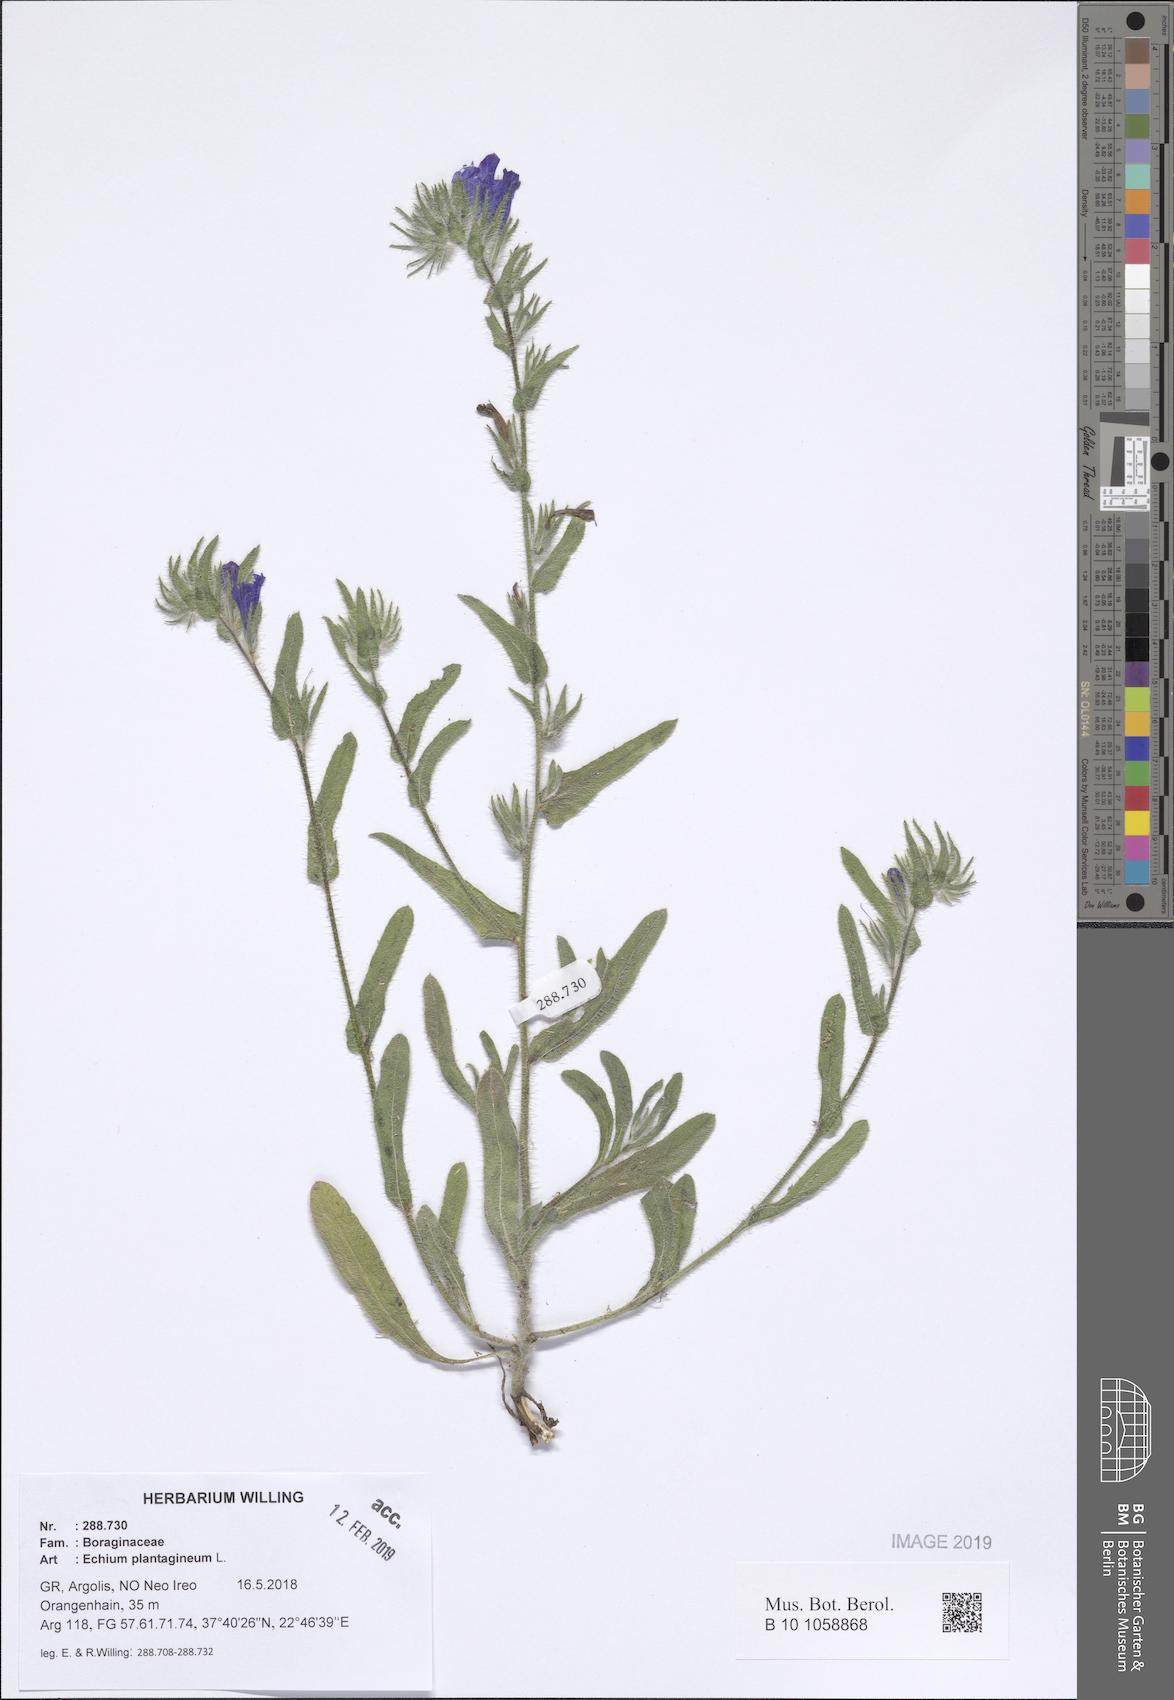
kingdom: Plantae
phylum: Tracheophyta
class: Magnoliopsida
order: Boraginales
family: Boraginaceae
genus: Echium
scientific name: Echium plantagineum
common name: Purple viper's-bugloss
